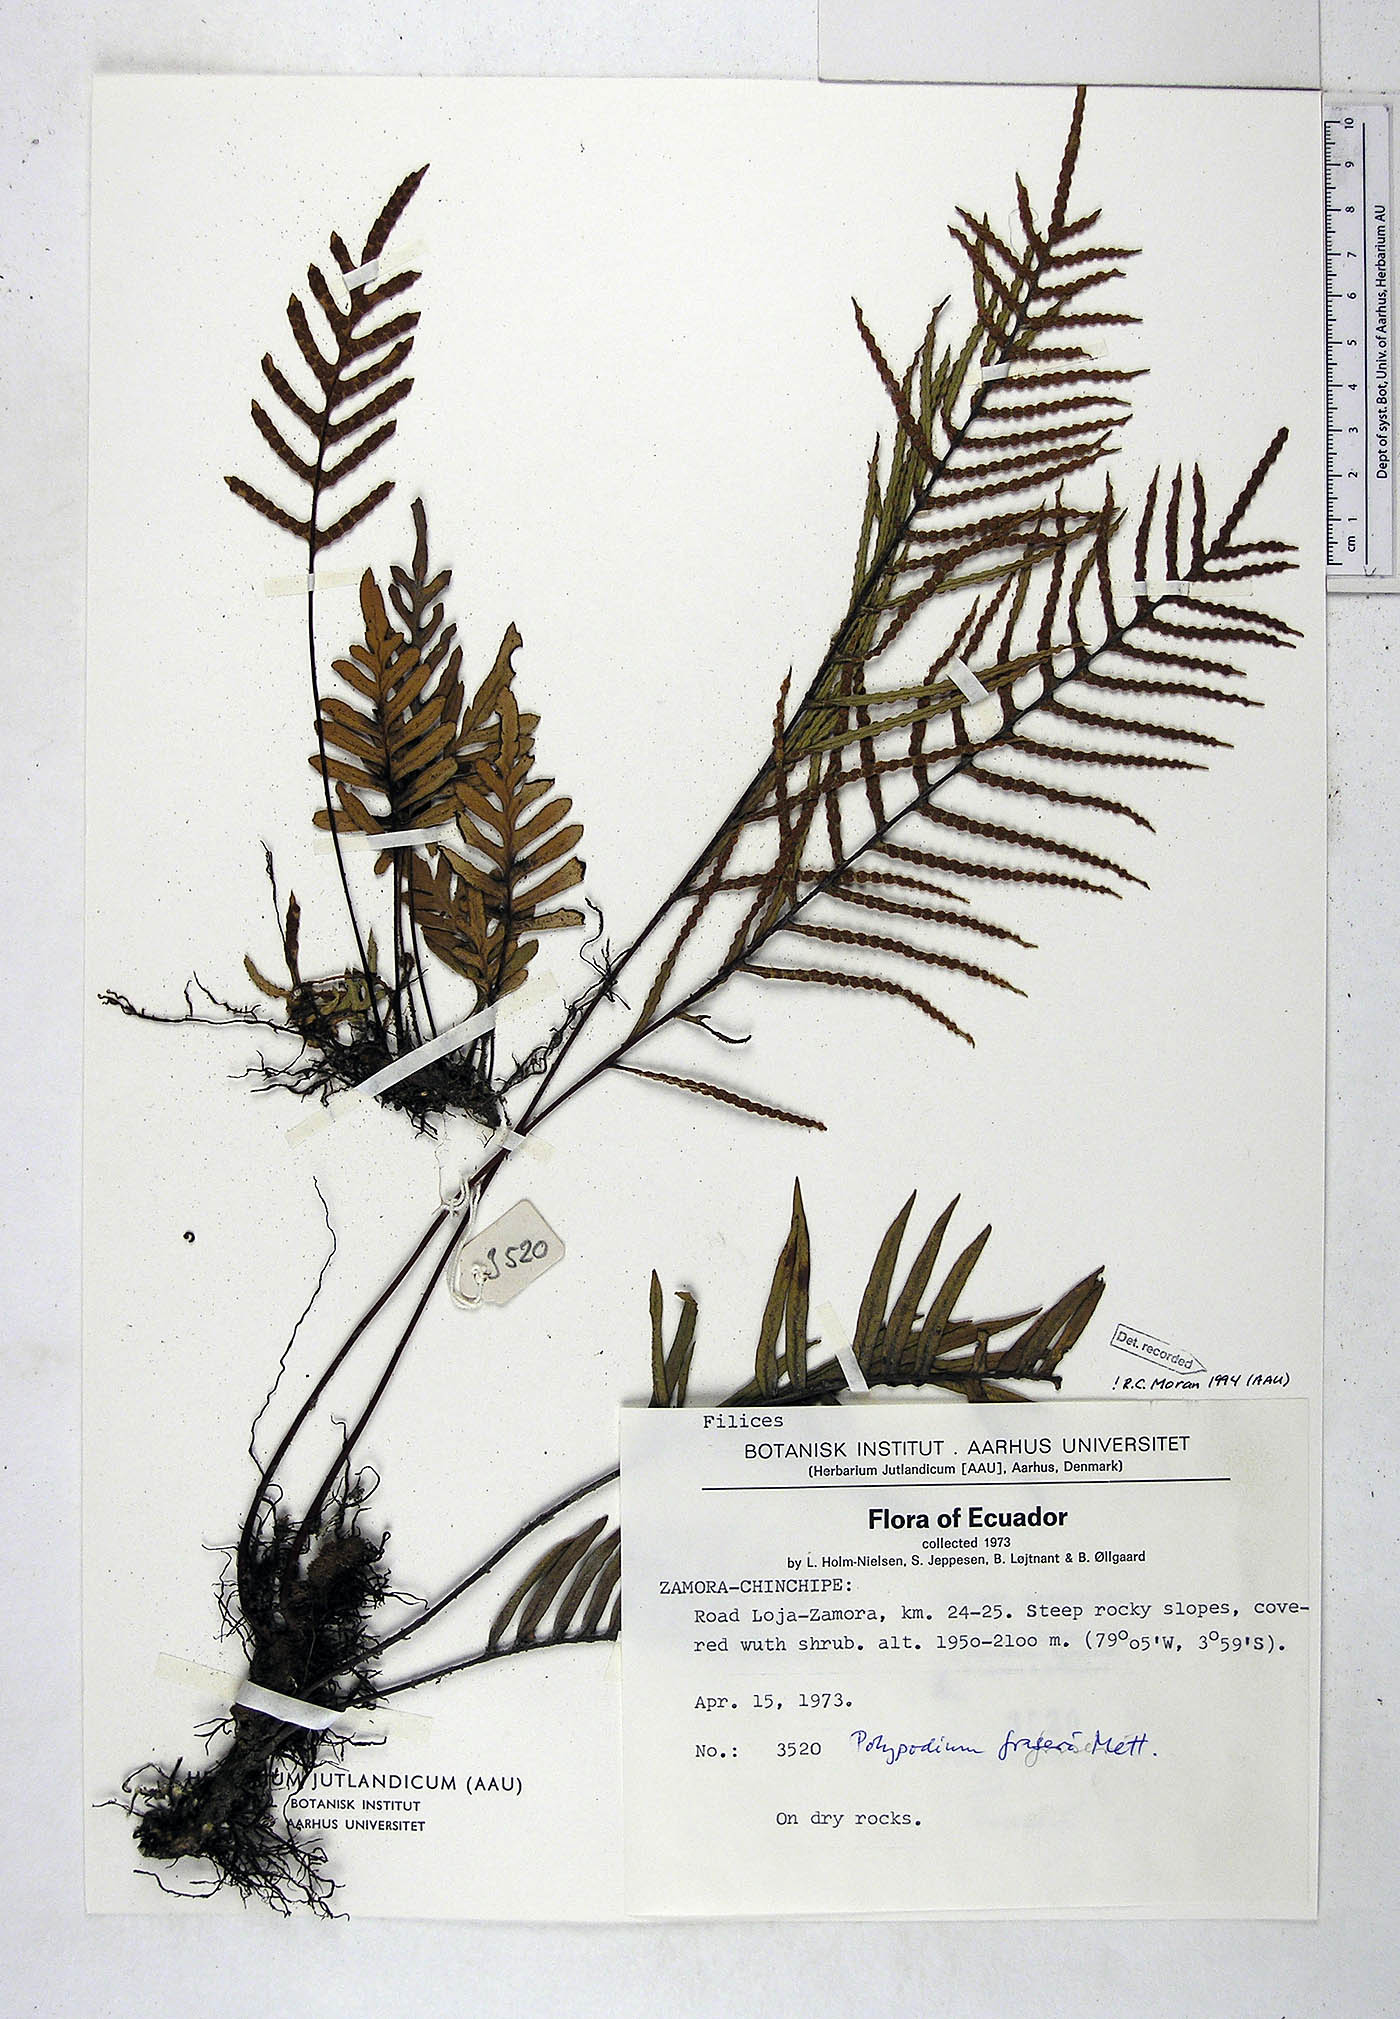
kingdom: Plantae
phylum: Tracheophyta
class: Polypodiopsida
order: Polypodiales
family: Polypodiaceae
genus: Pleopeltis
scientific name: Pleopeltis fraseri
